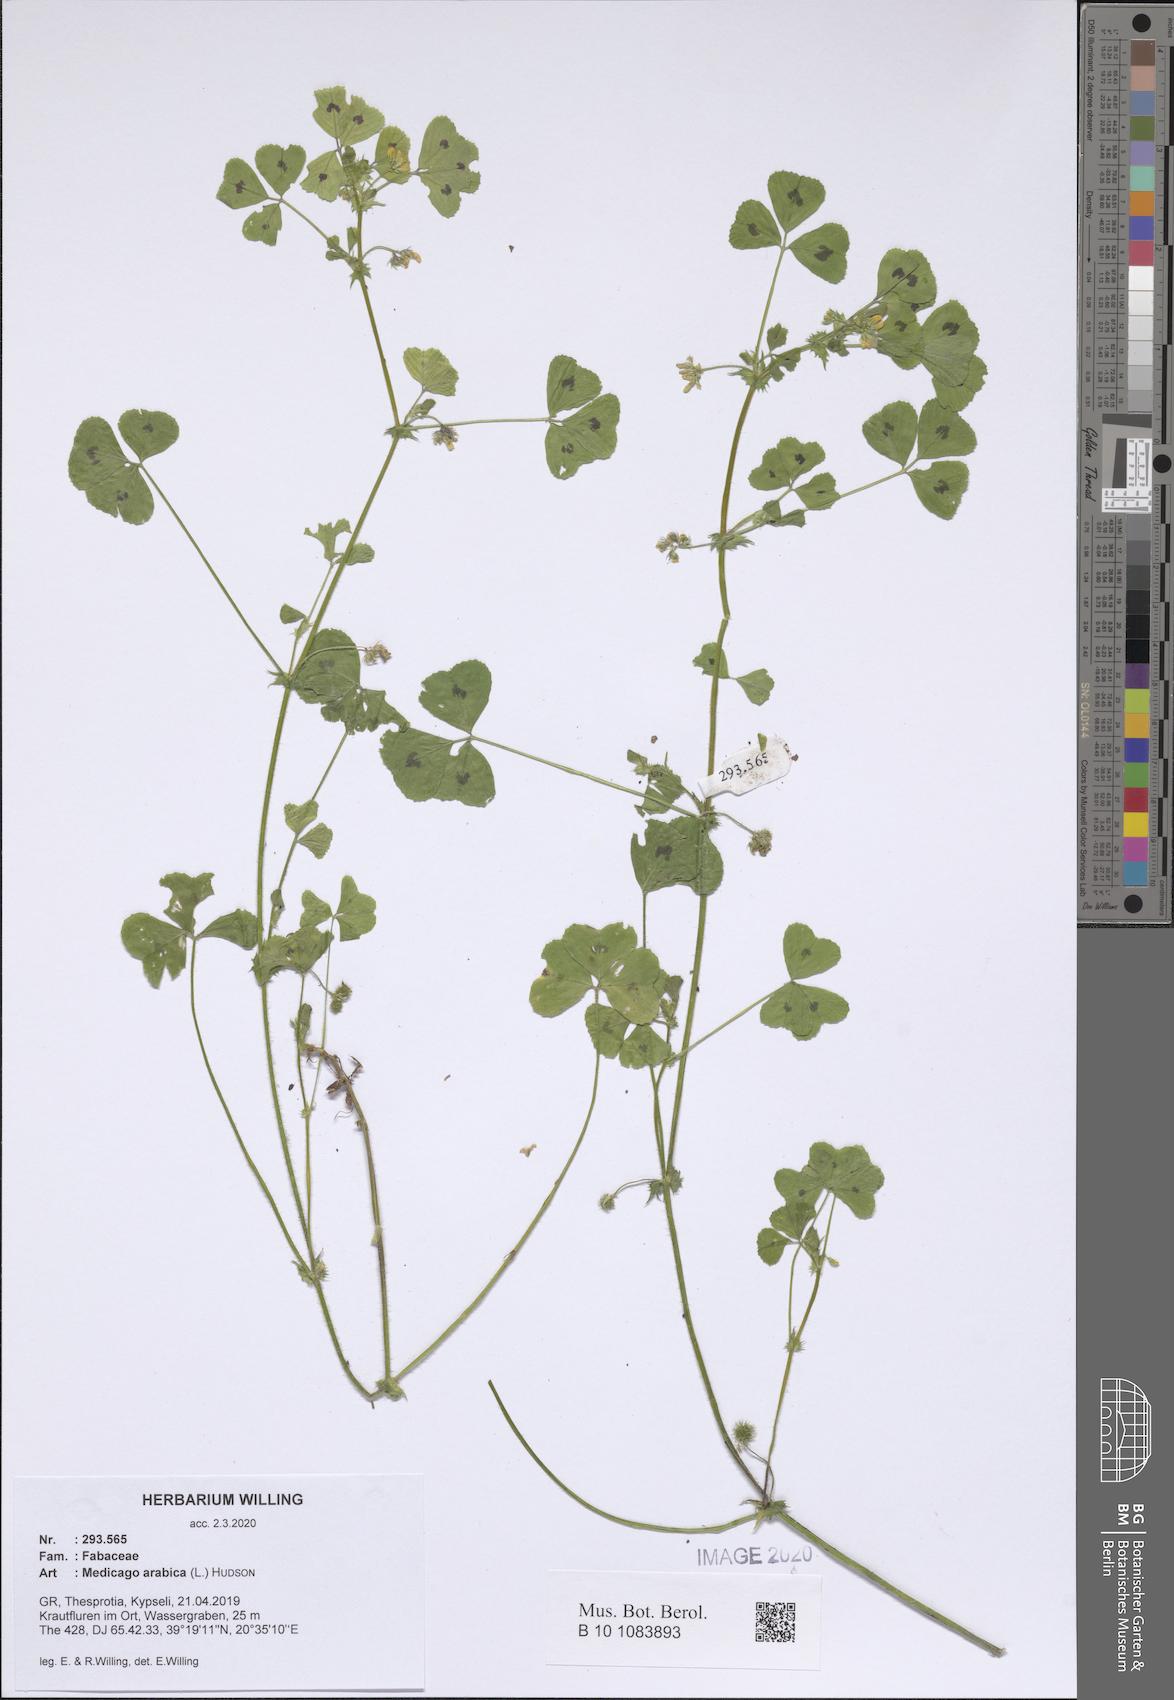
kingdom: Plantae
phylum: Tracheophyta
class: Magnoliopsida
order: Fabales
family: Fabaceae
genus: Medicago
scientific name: Medicago arabica
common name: Spotted medick
